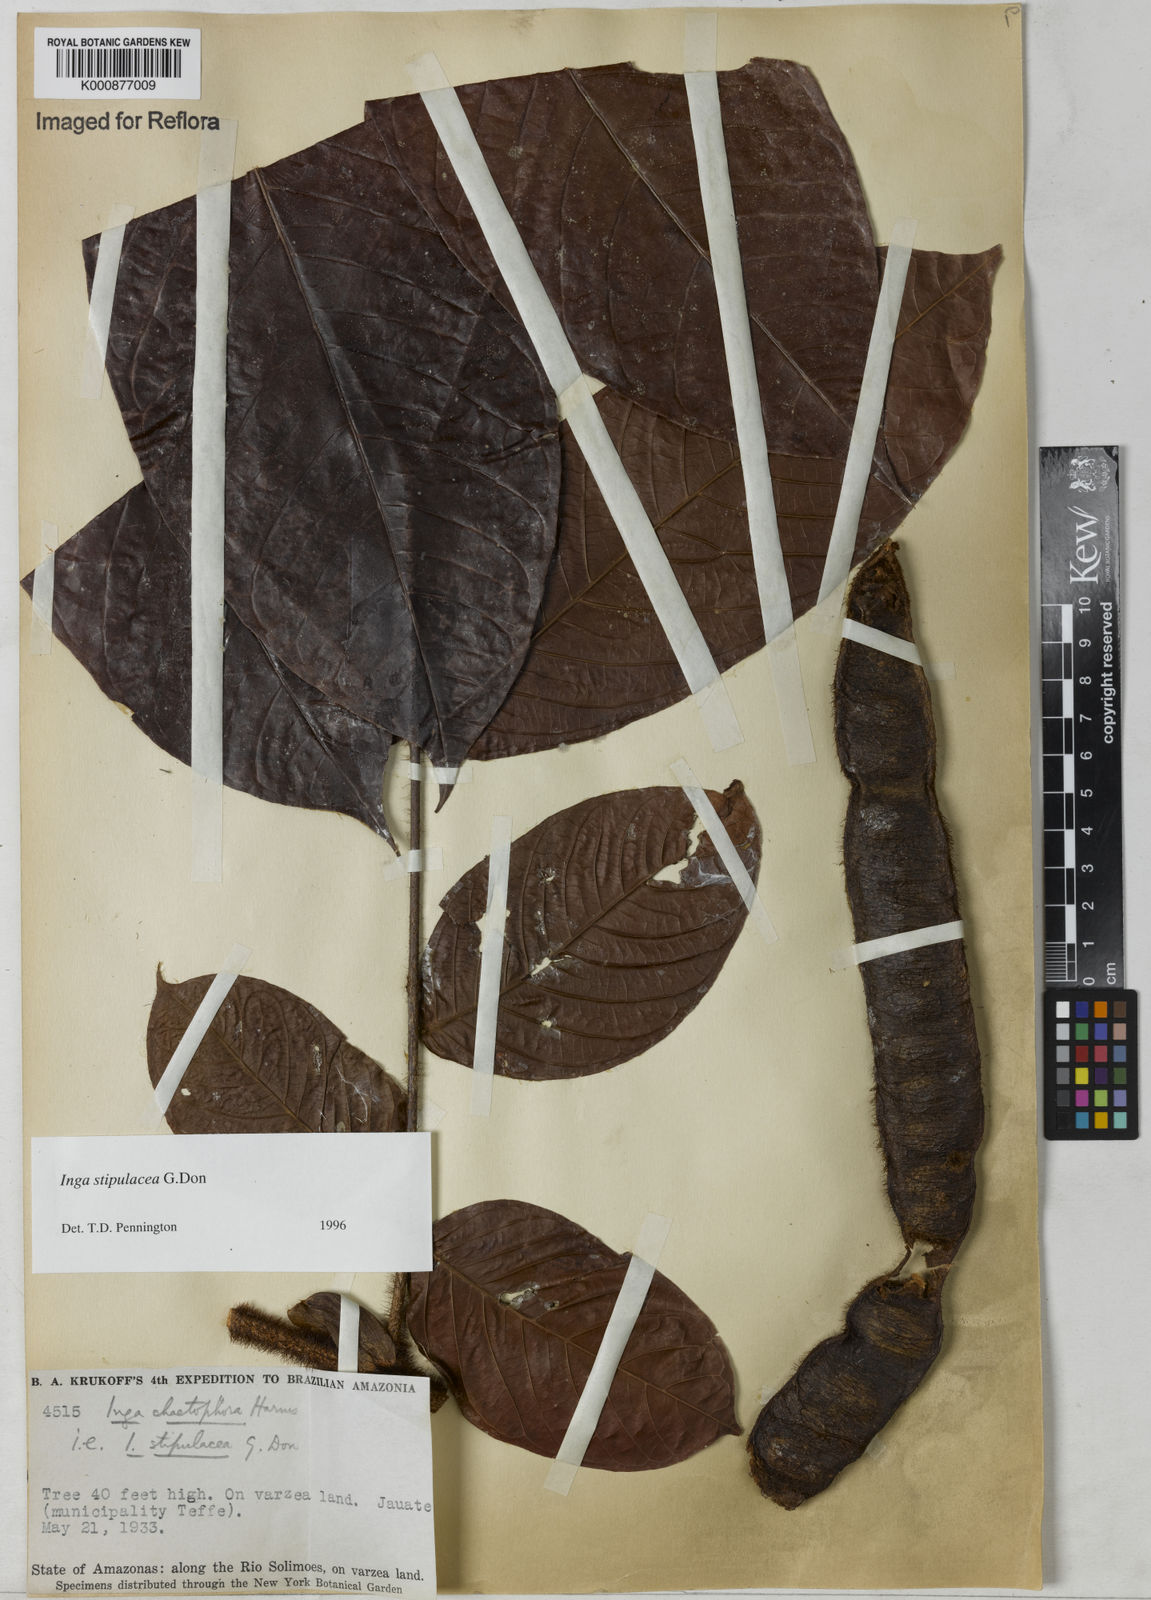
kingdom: Plantae
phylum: Tracheophyta
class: Magnoliopsida
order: Fabales
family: Fabaceae
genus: Inga
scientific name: Inga stipulacea
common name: Stipulate inga
